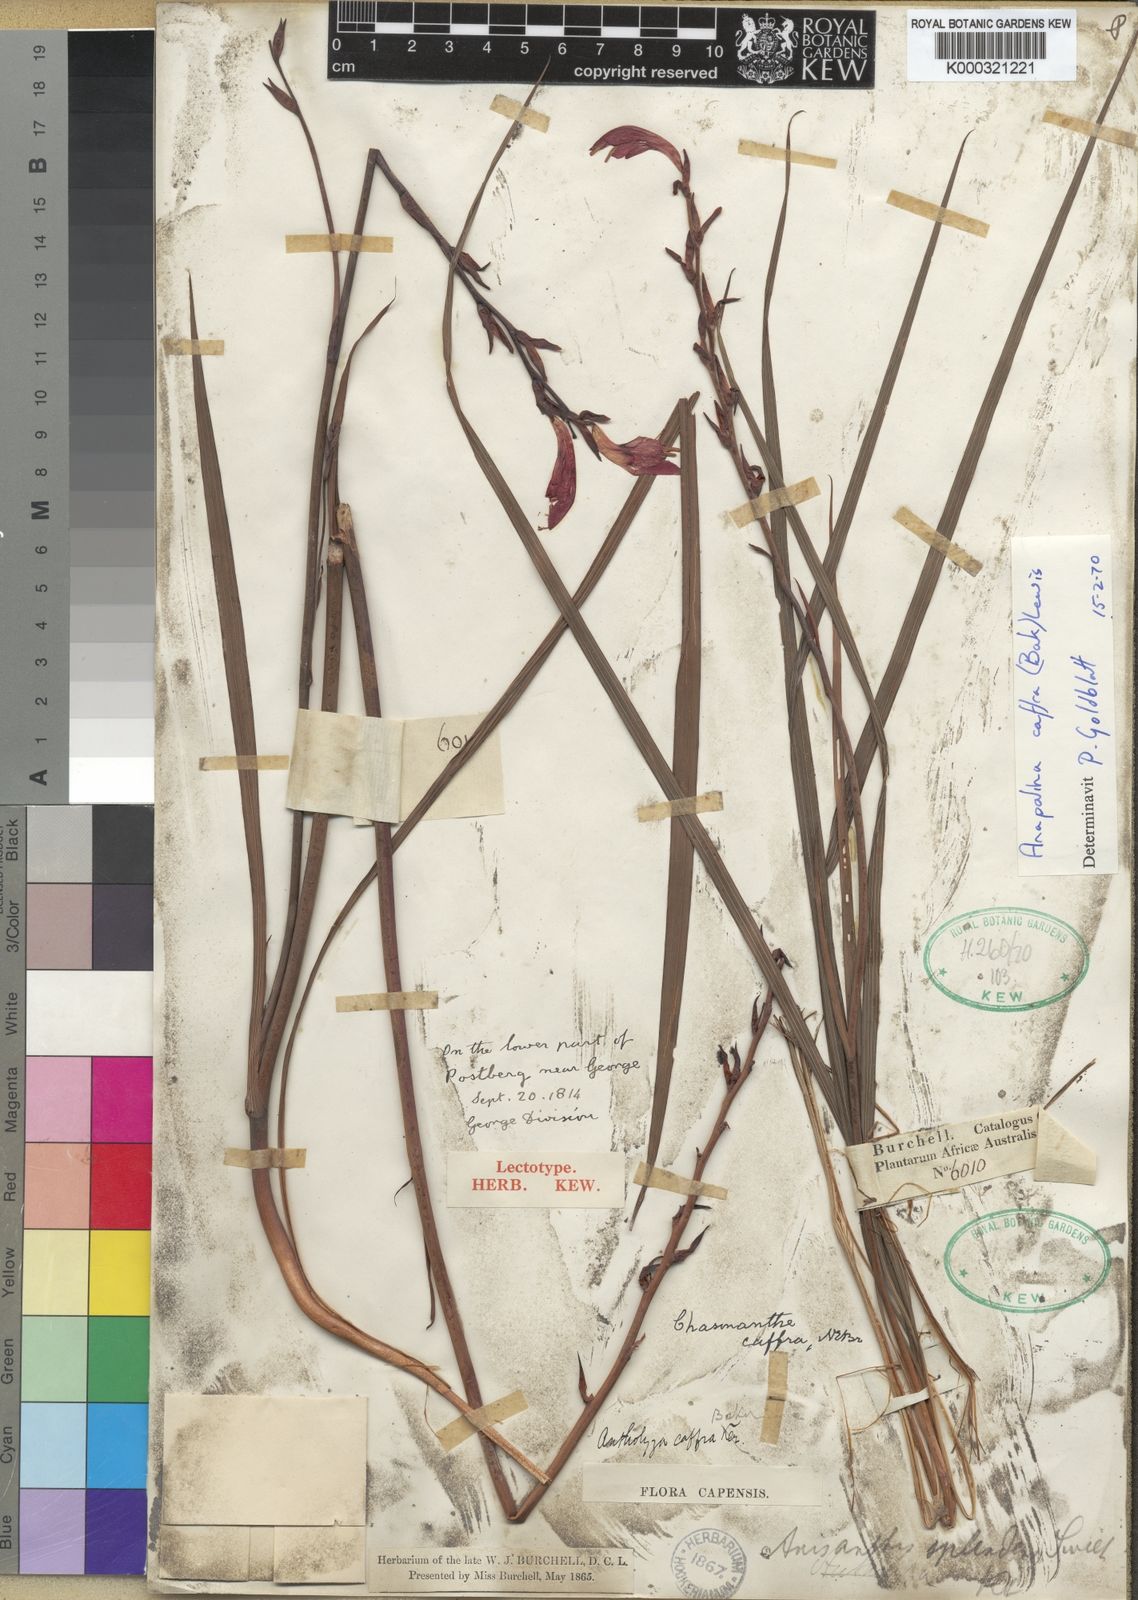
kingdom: Plantae
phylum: Tracheophyta
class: Liliopsida
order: Asparagales
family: Iridaceae
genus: Tritoniopsis
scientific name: Tritoniopsis caffra
